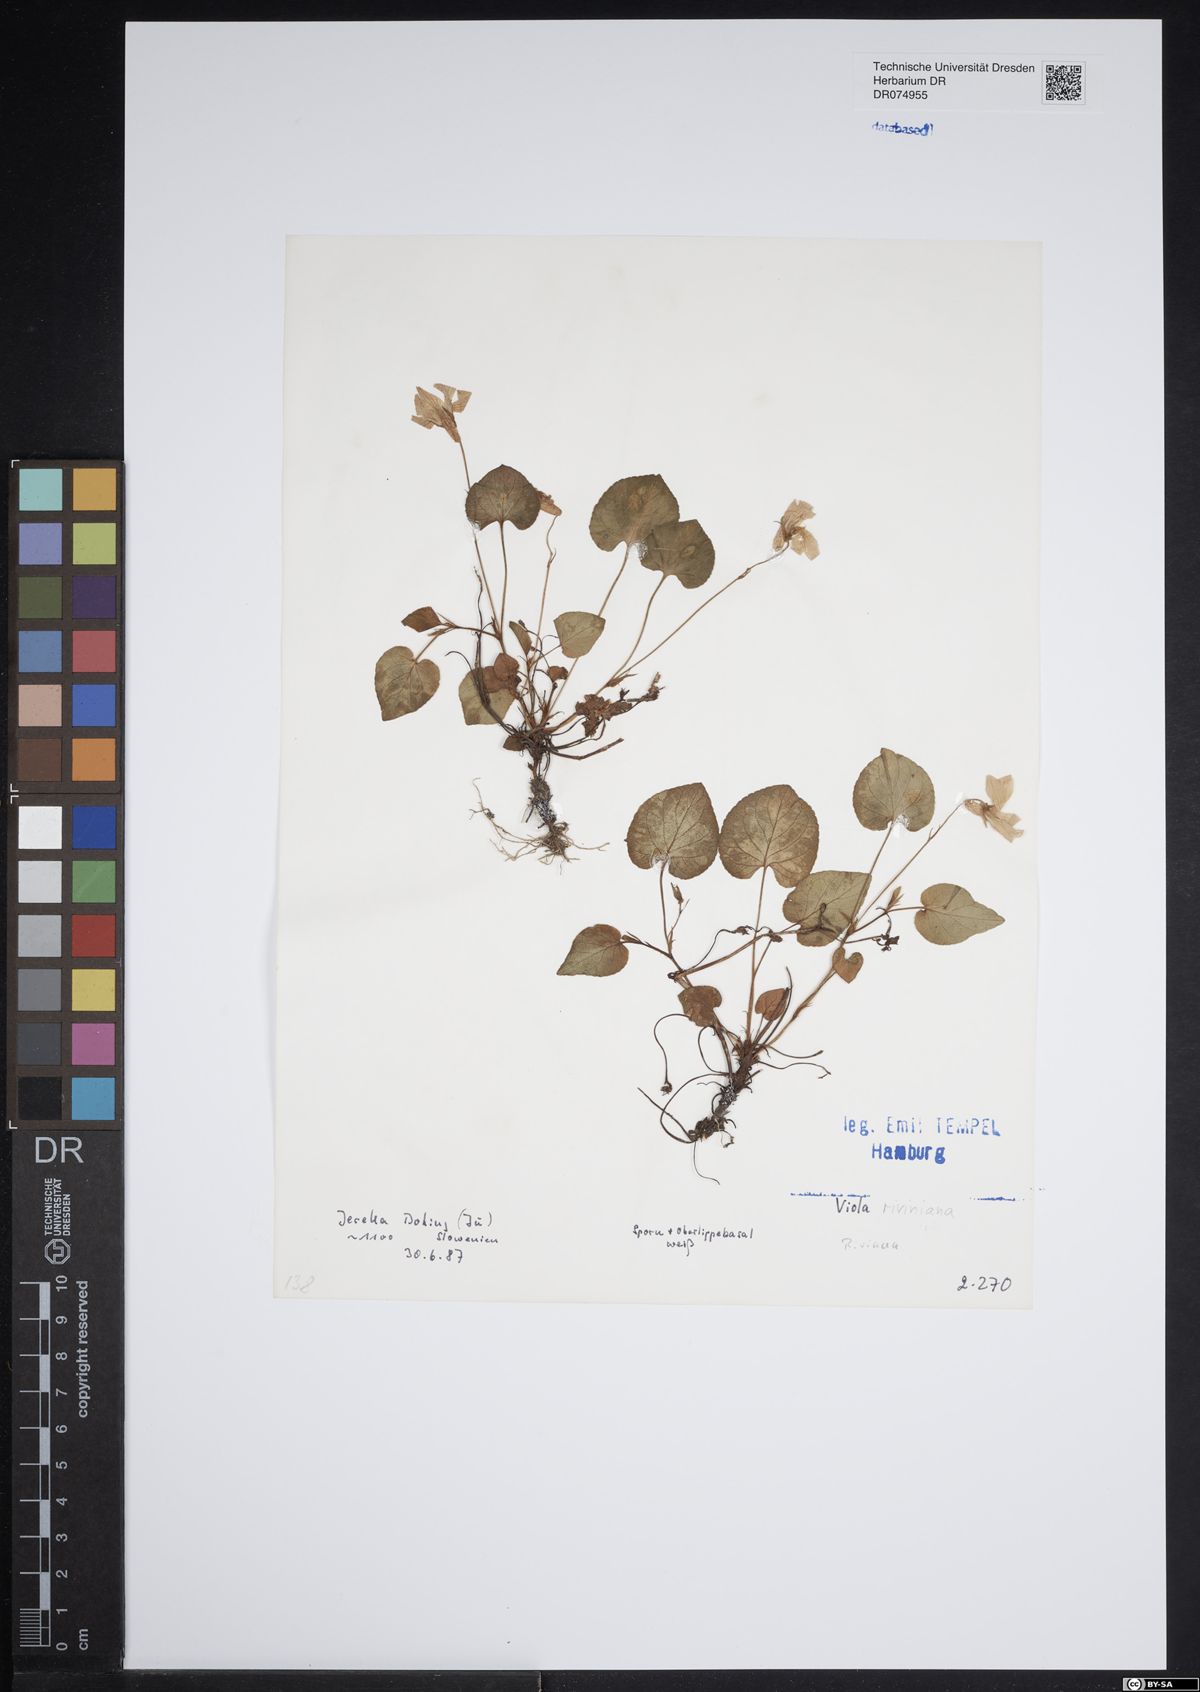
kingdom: Plantae
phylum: Tracheophyta
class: Magnoliopsida
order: Malpighiales
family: Violaceae
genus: Viola
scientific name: Viola riviniana
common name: Common dog-violet
